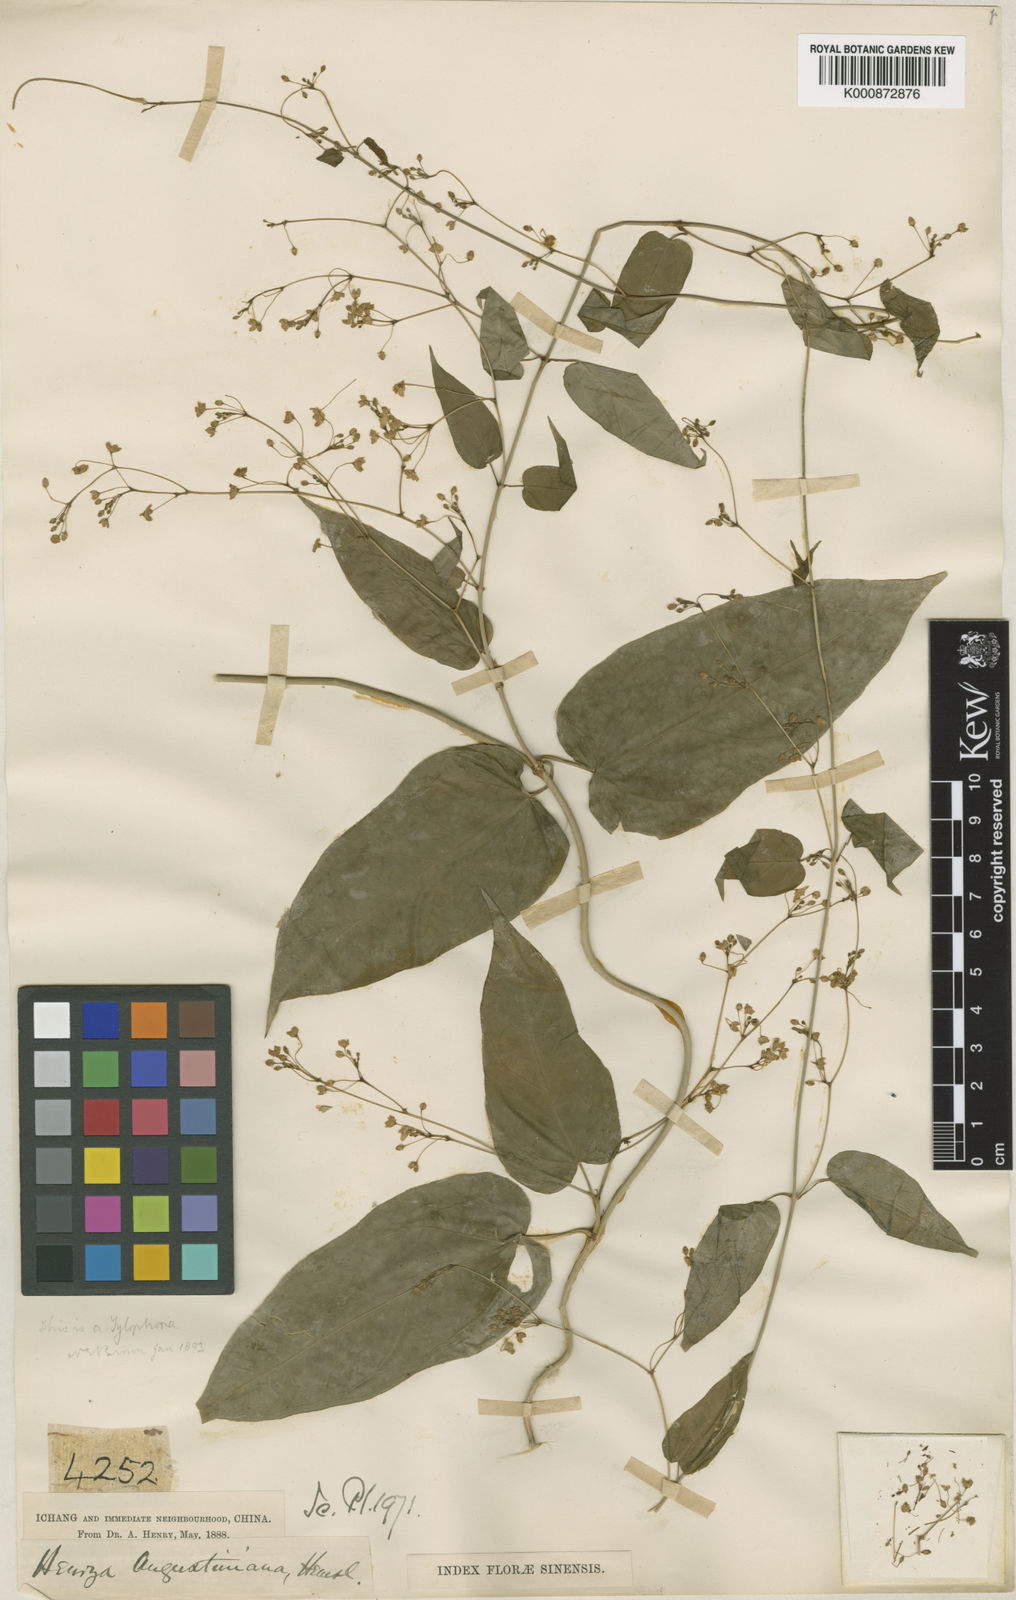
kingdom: Plantae
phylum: Tracheophyta
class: Magnoliopsida
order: Gentianales
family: Apocynaceae
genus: Vincetoxicum
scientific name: Vincetoxicum augustinianum
